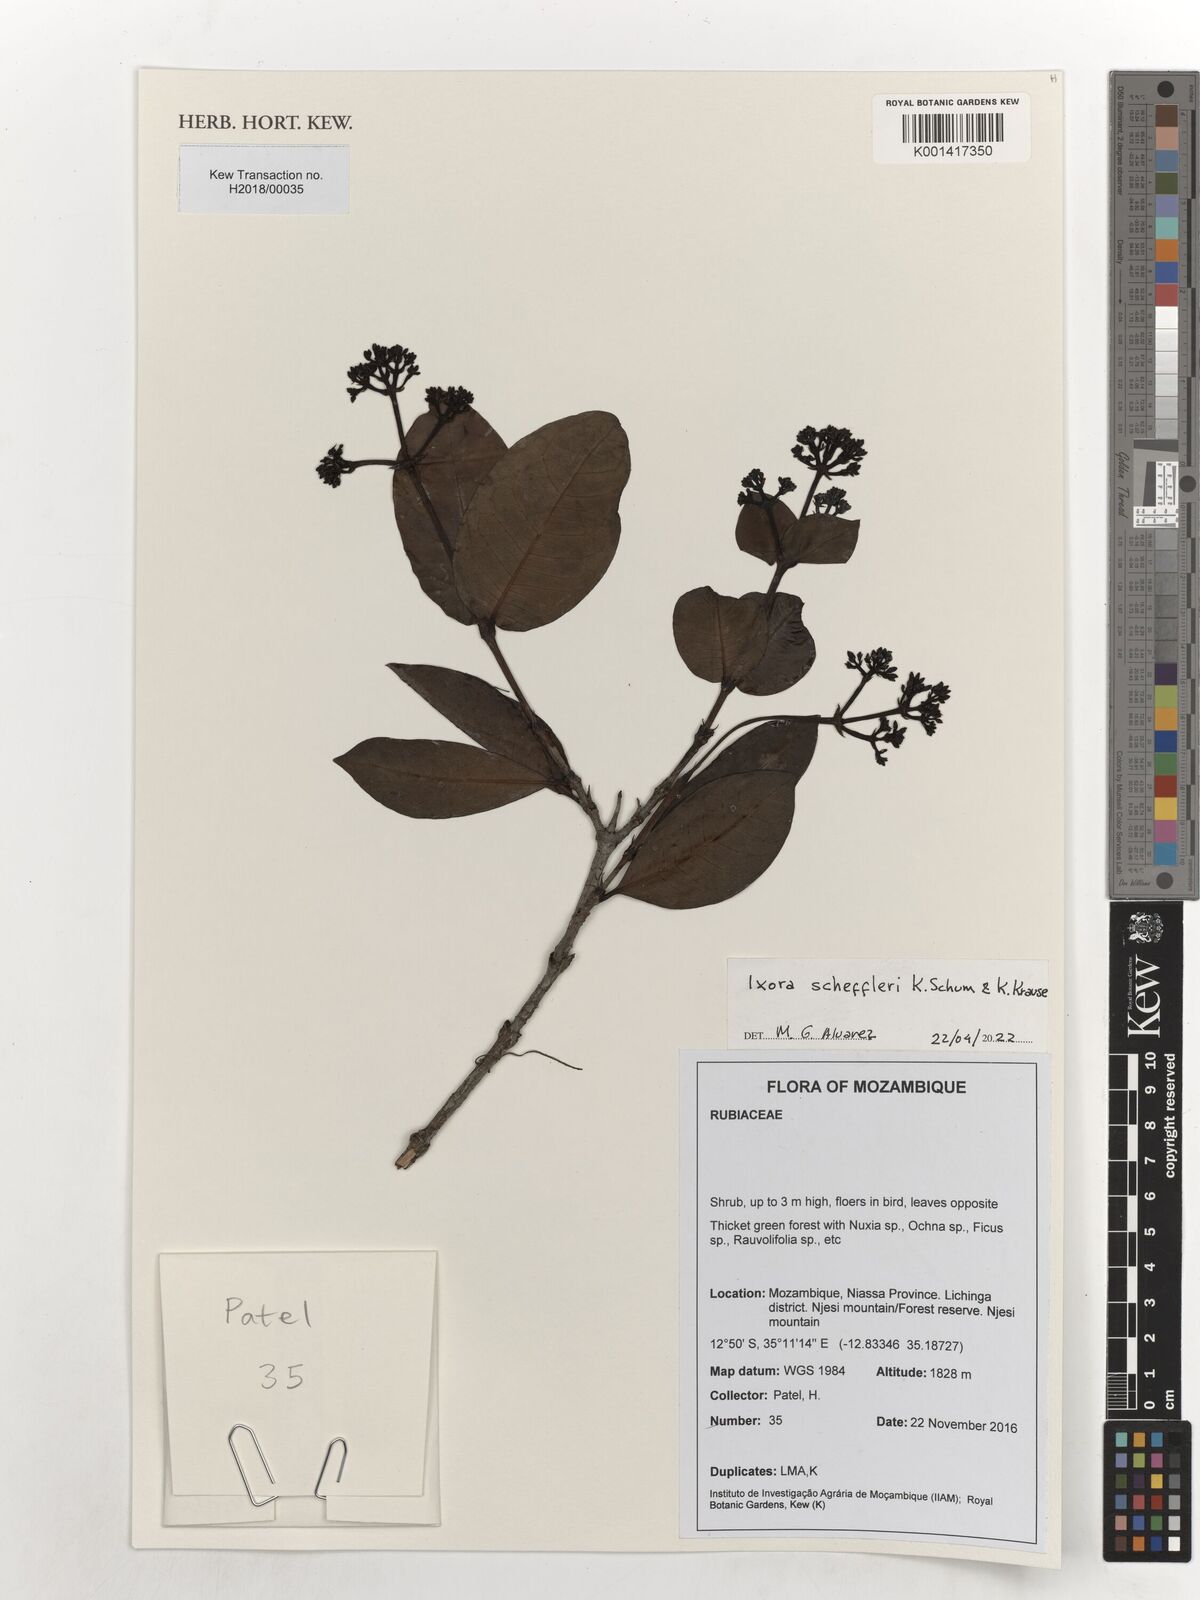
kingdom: Plantae
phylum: Tracheophyta
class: Magnoliopsida
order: Gentianales
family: Rubiaceae
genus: Ixora
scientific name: Ixora scheffleri
